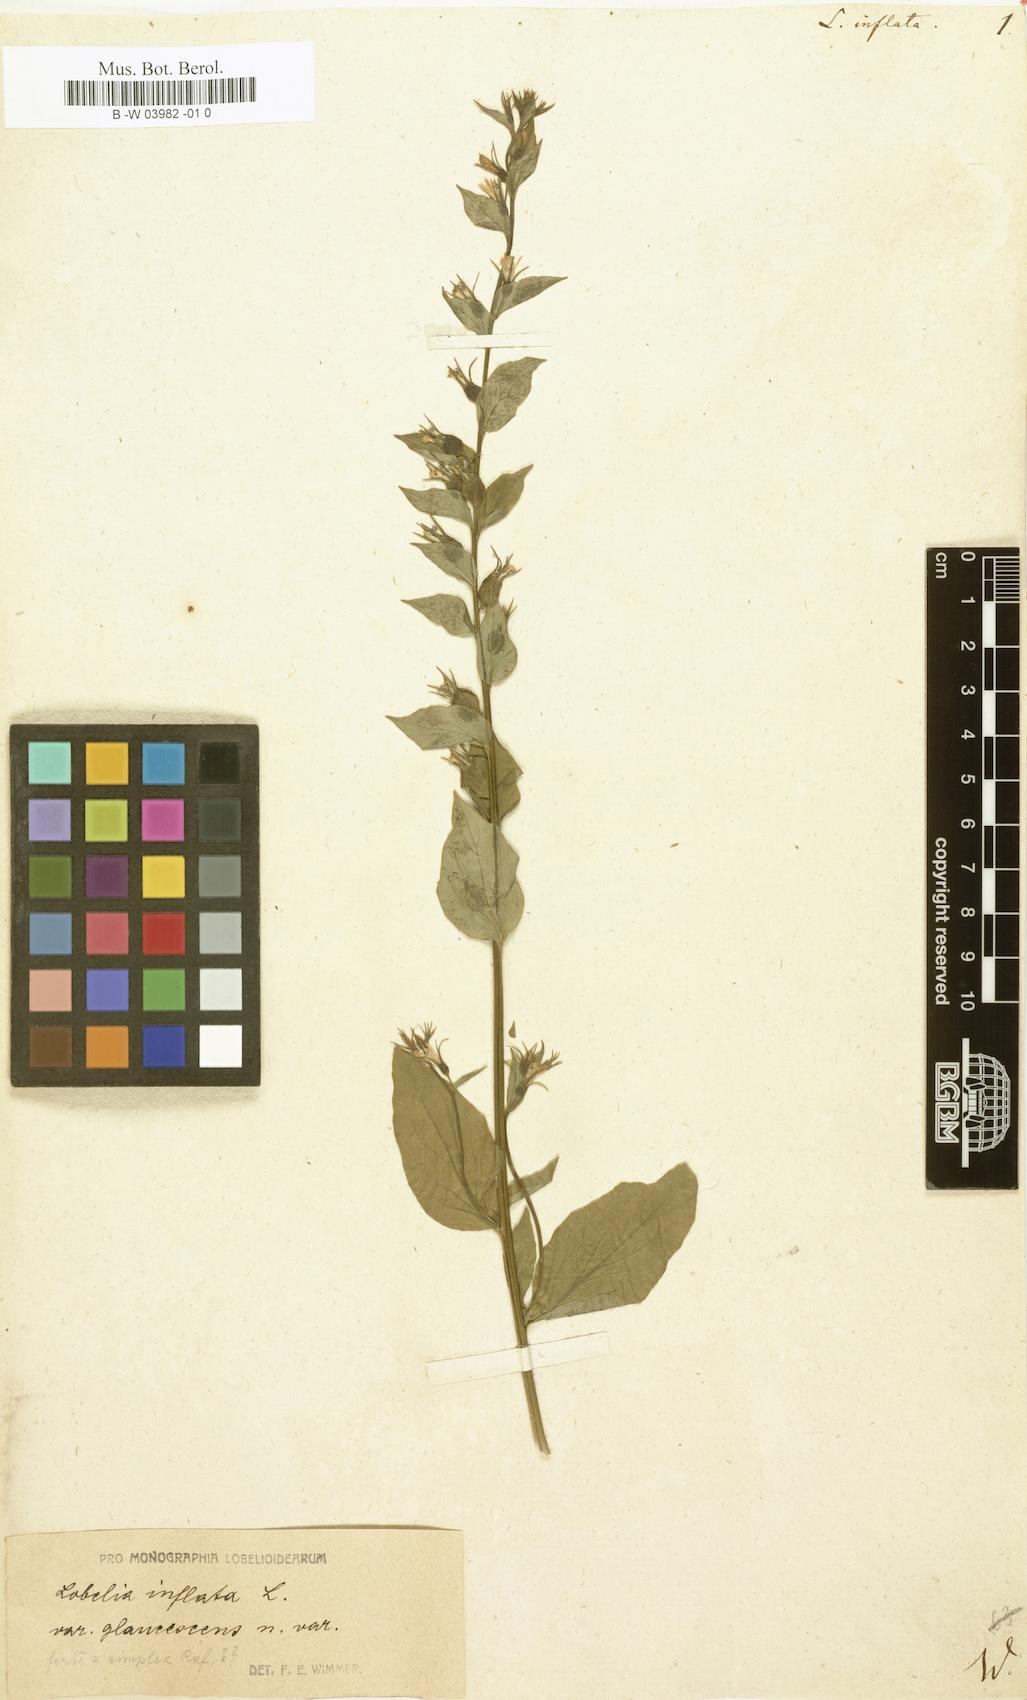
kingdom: Plantae
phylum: Tracheophyta
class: Magnoliopsida
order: Asterales
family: Campanulaceae
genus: Lobelia
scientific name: Lobelia inflata
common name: Indian tobacco
